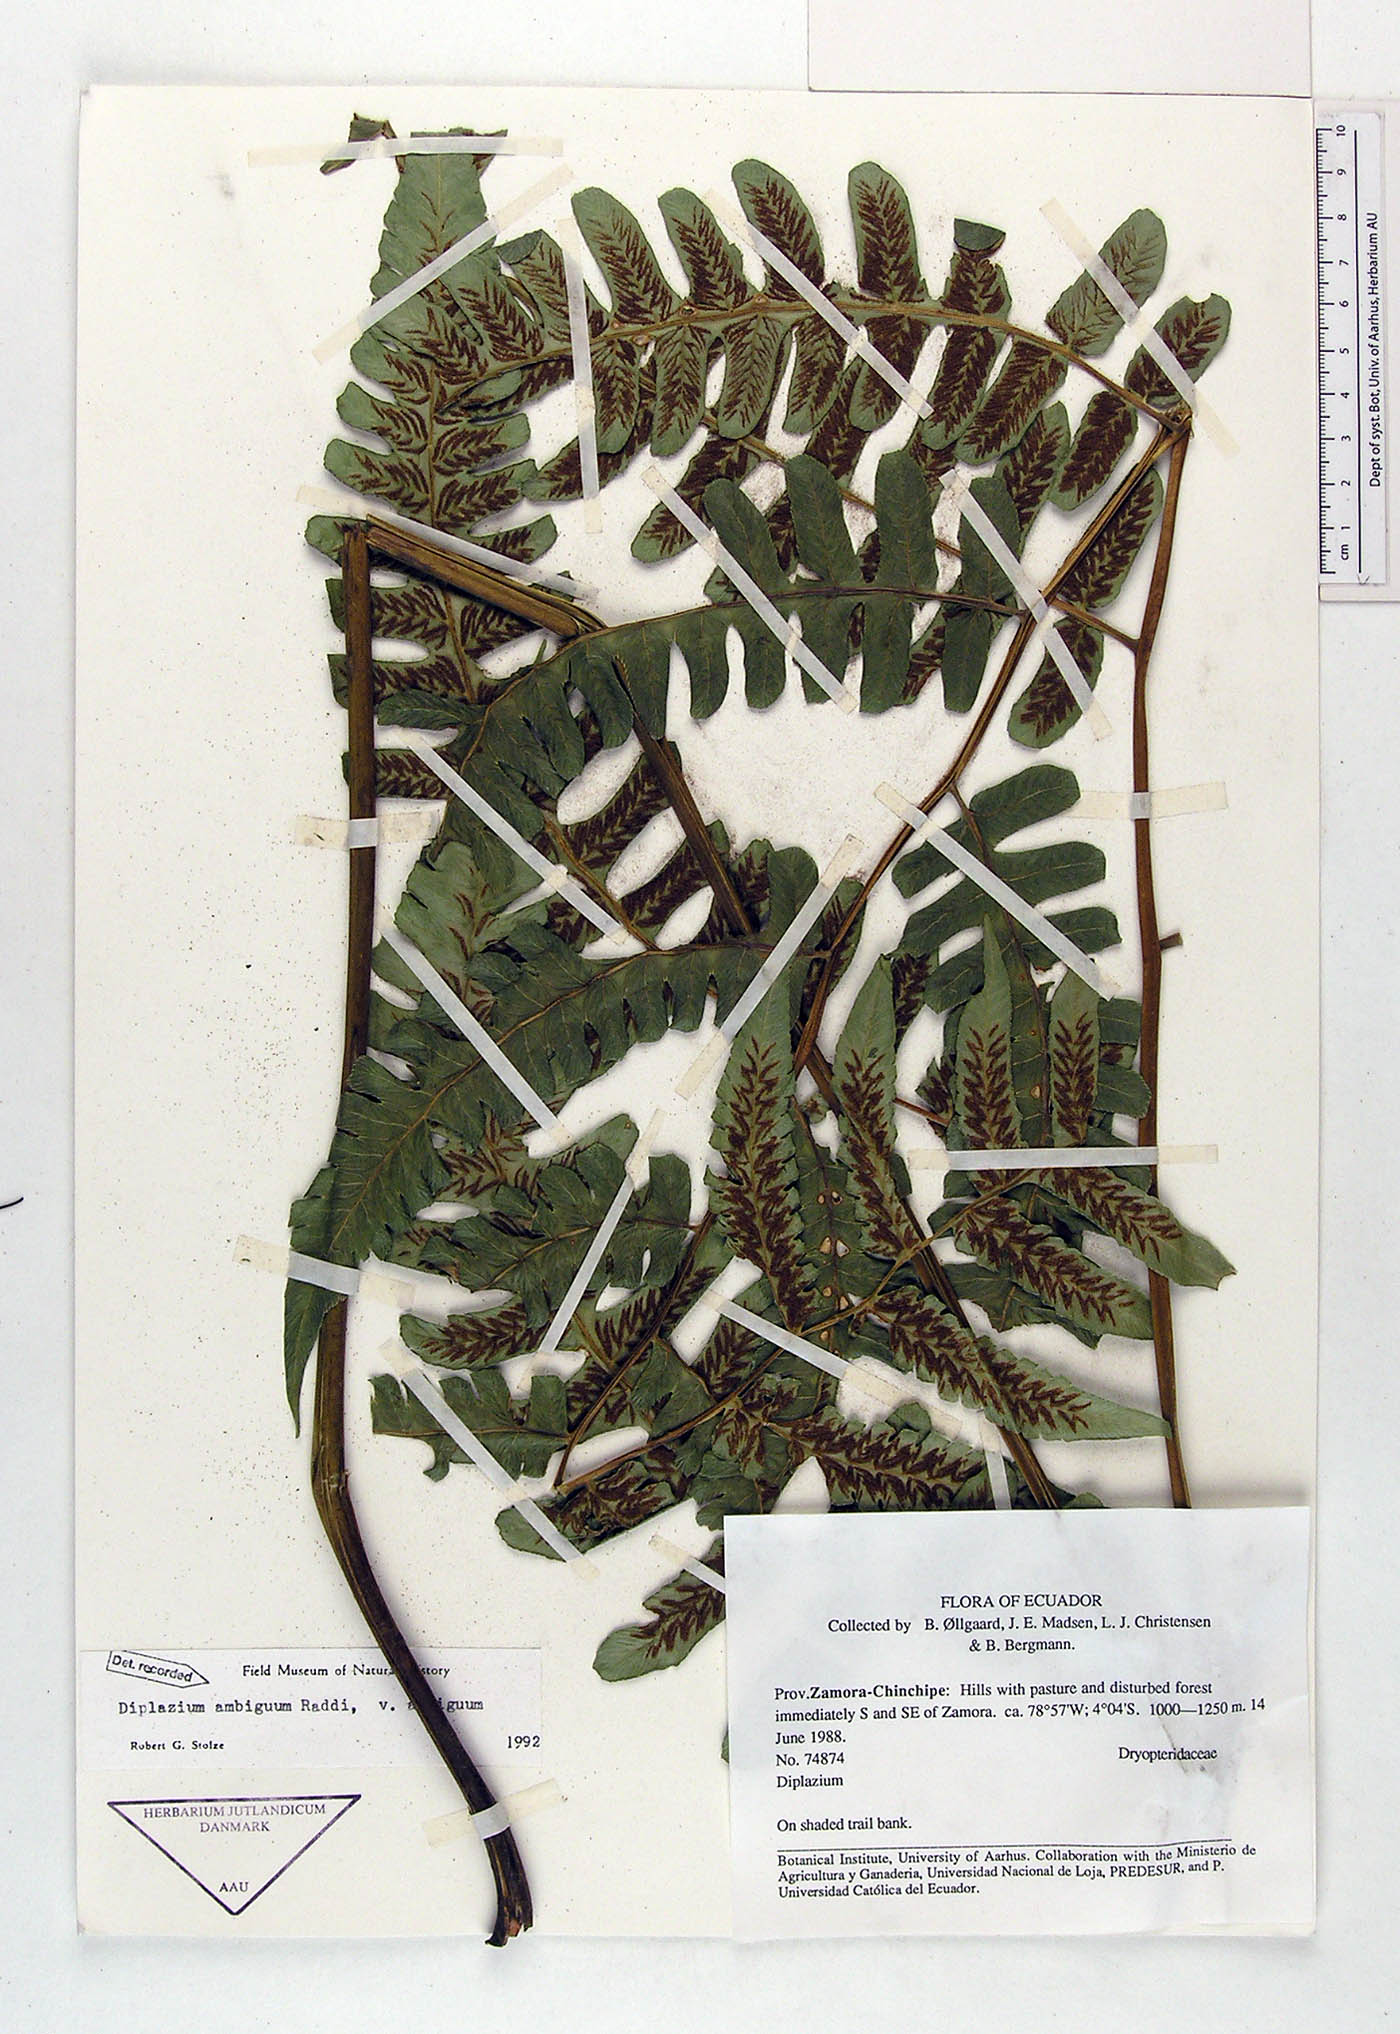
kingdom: Plantae
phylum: Tracheophyta
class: Polypodiopsida
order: Polypodiales
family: Athyriaceae
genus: Diplazium
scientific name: Diplazium ambiguum
